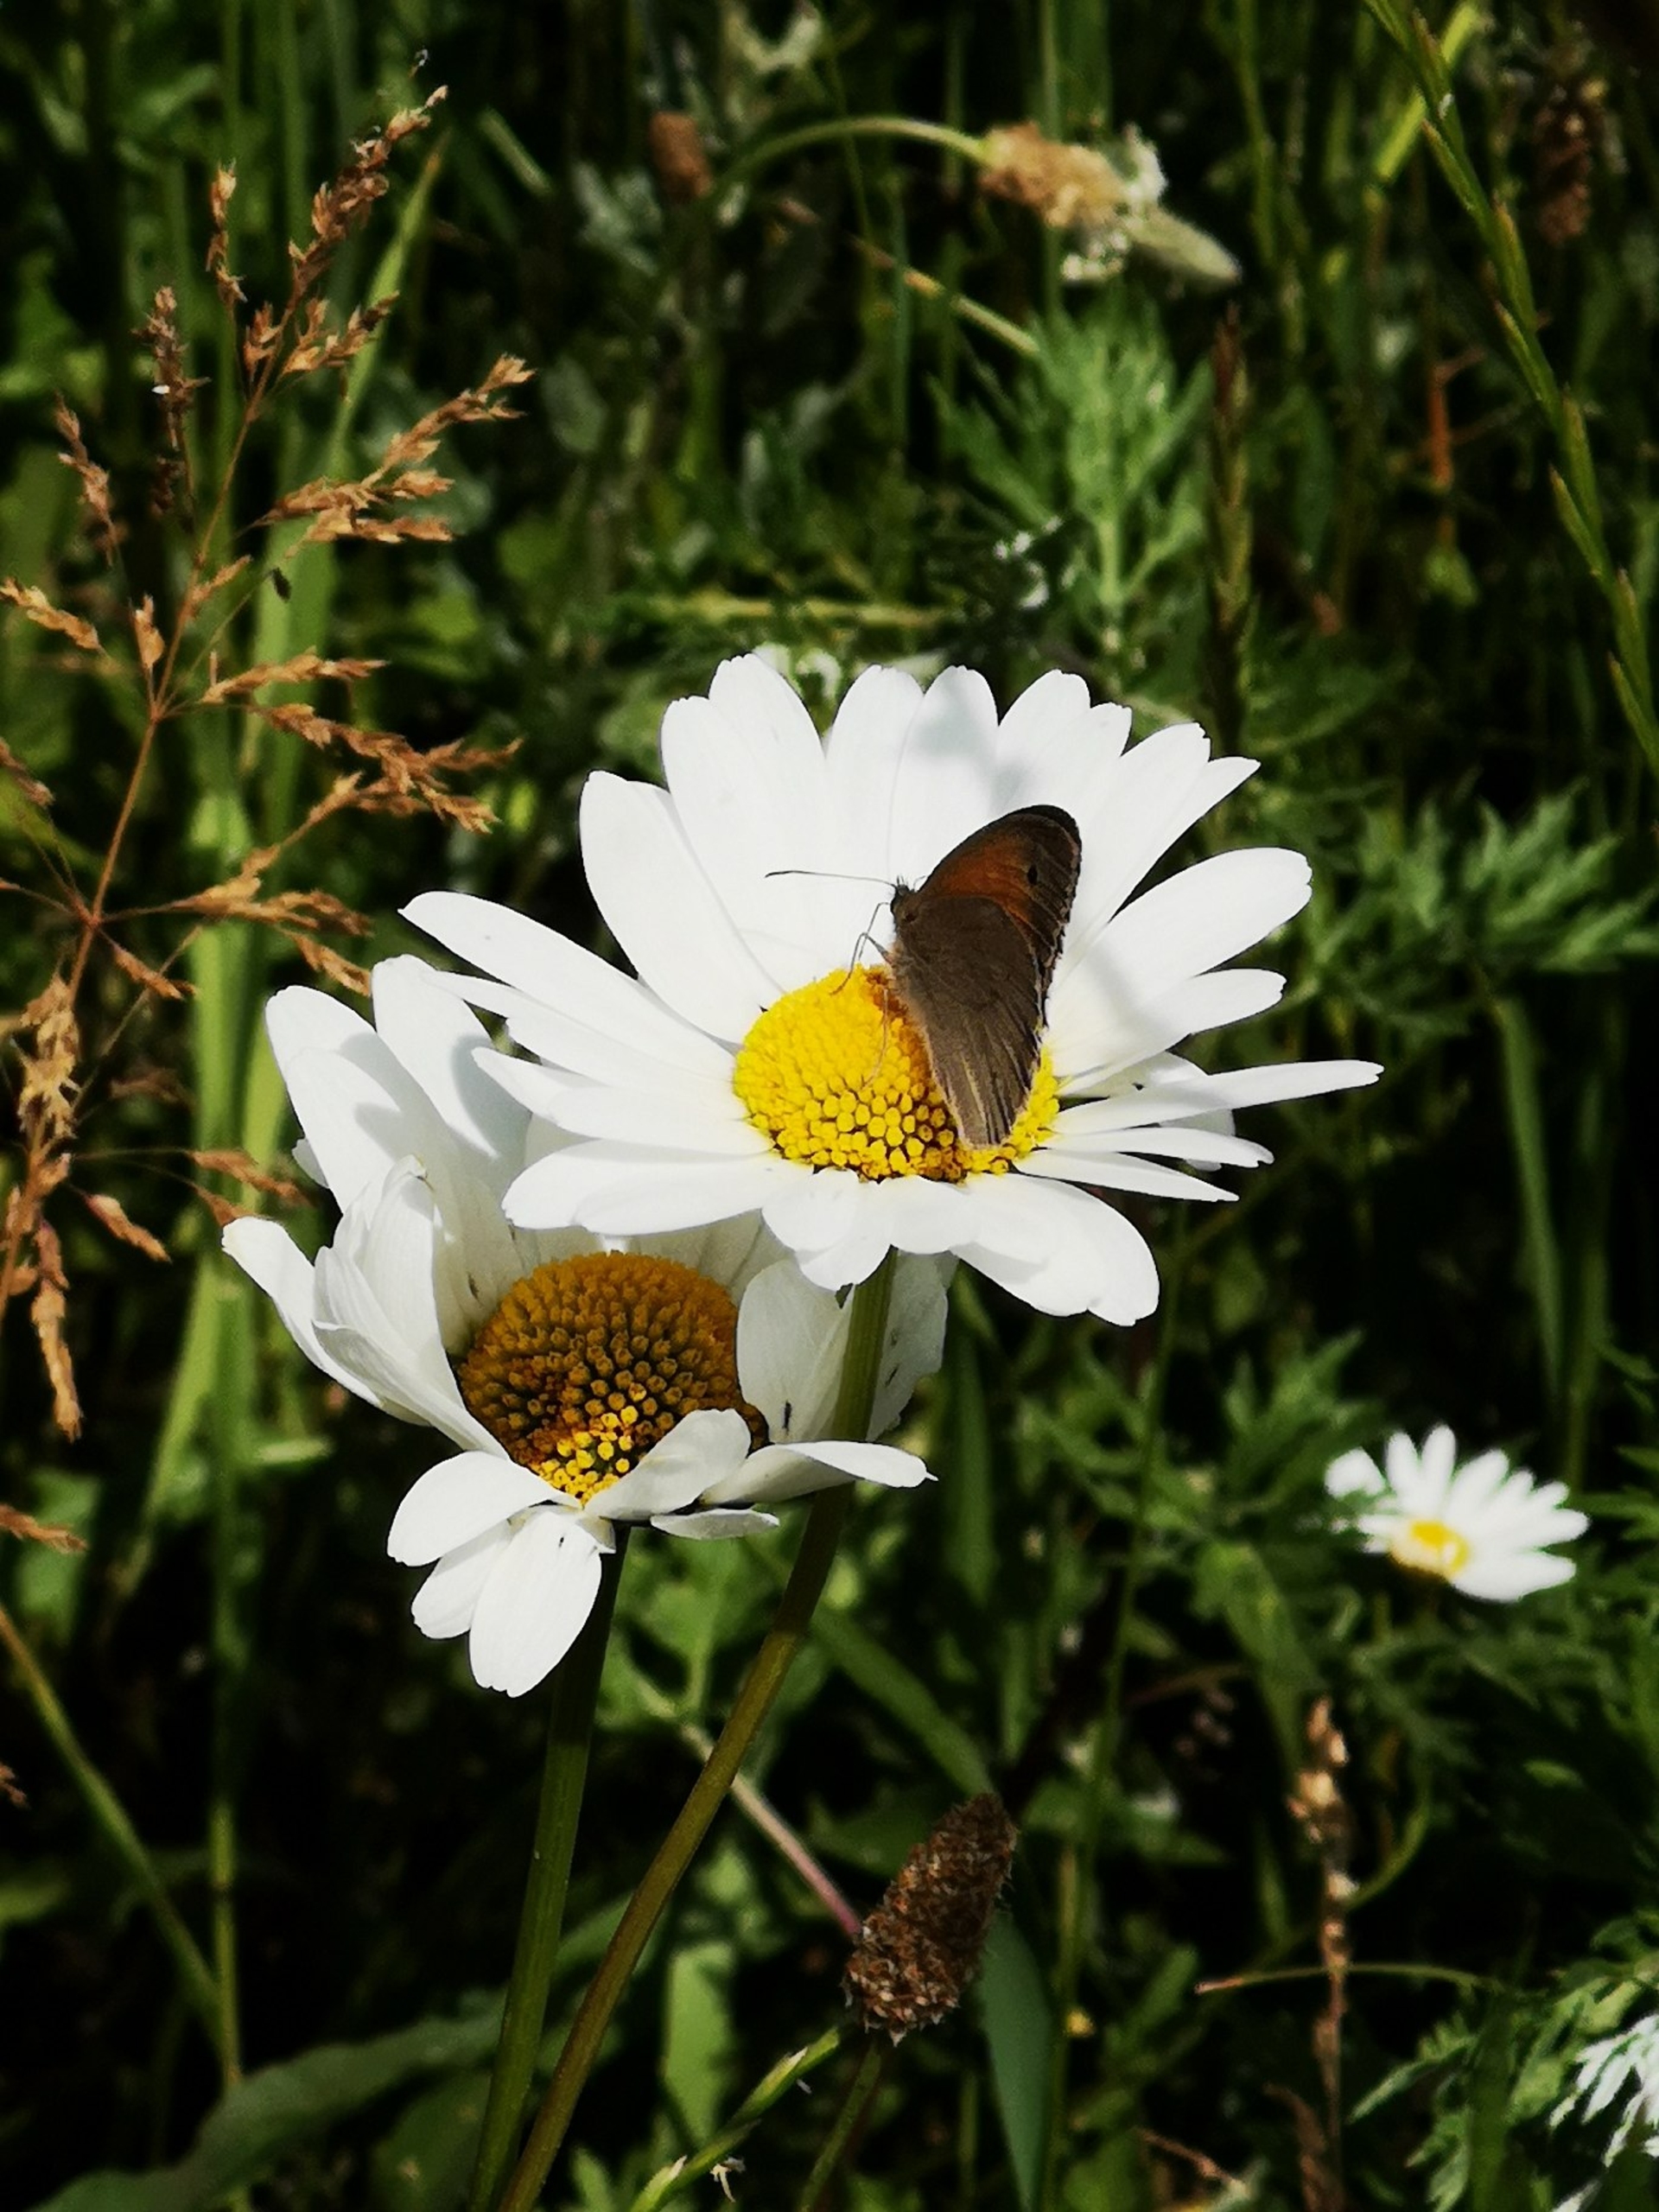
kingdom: Animalia
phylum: Arthropoda
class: Insecta
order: Lepidoptera
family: Nymphalidae
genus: Maniola
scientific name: Maniola jurtina
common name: Græsrandøje
